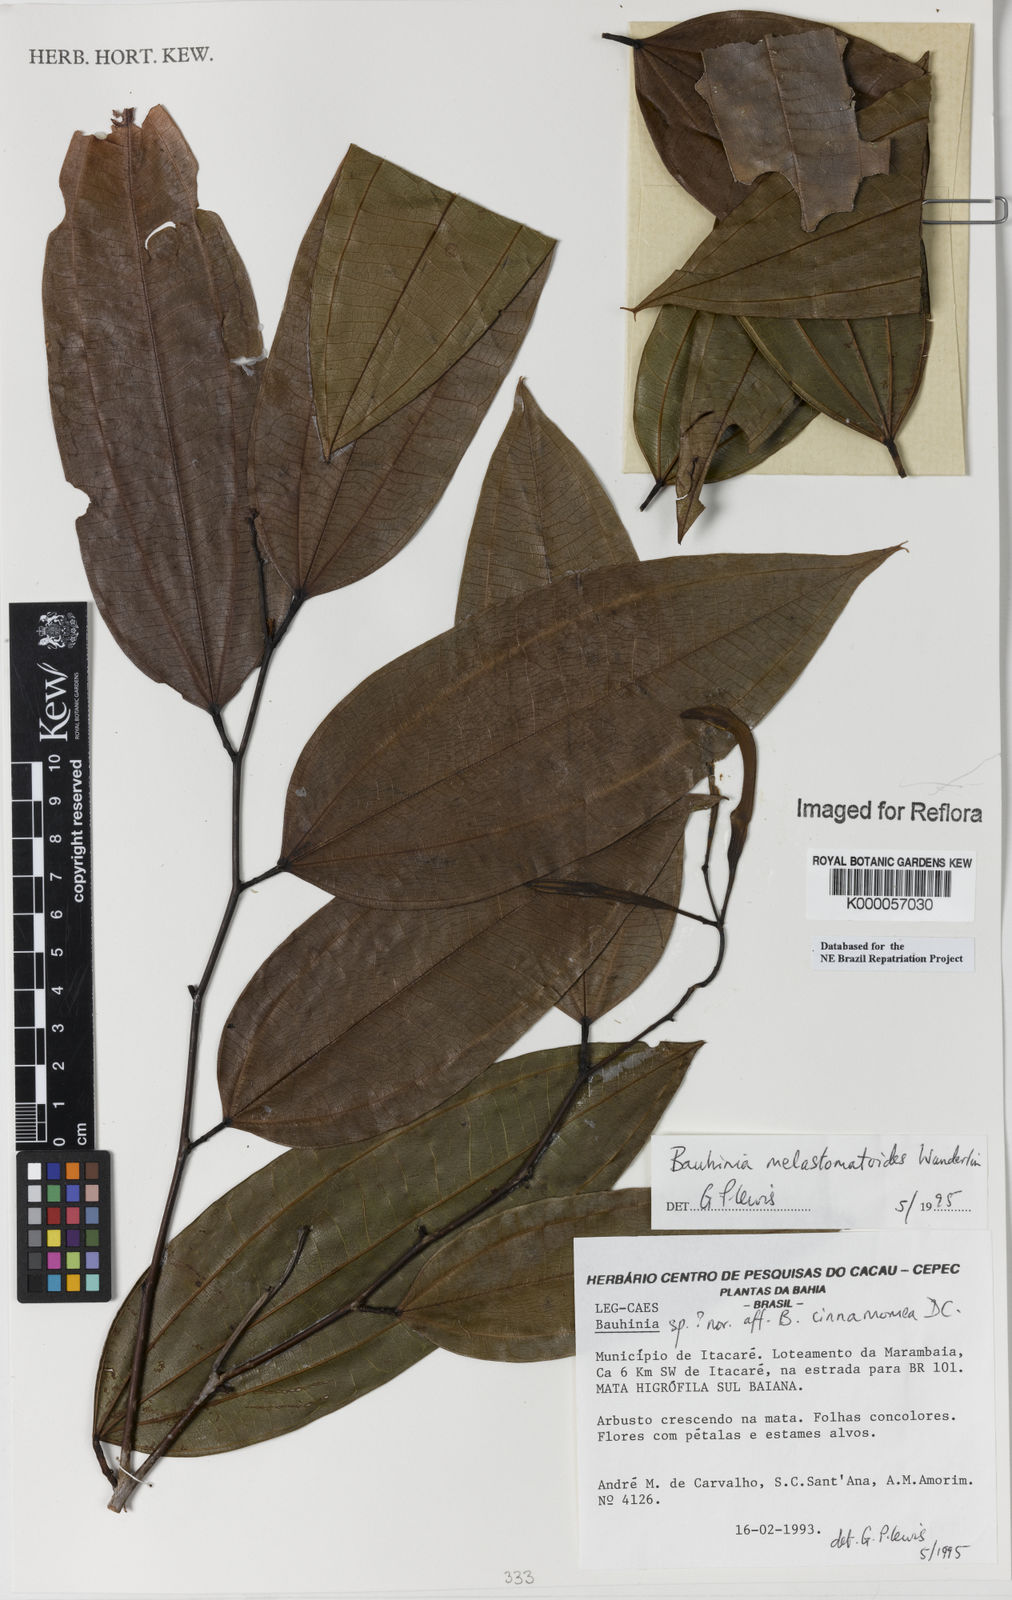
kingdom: Plantae
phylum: Tracheophyta
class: Magnoliopsida
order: Fabales
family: Fabaceae
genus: Bauhinia
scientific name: Bauhinia
